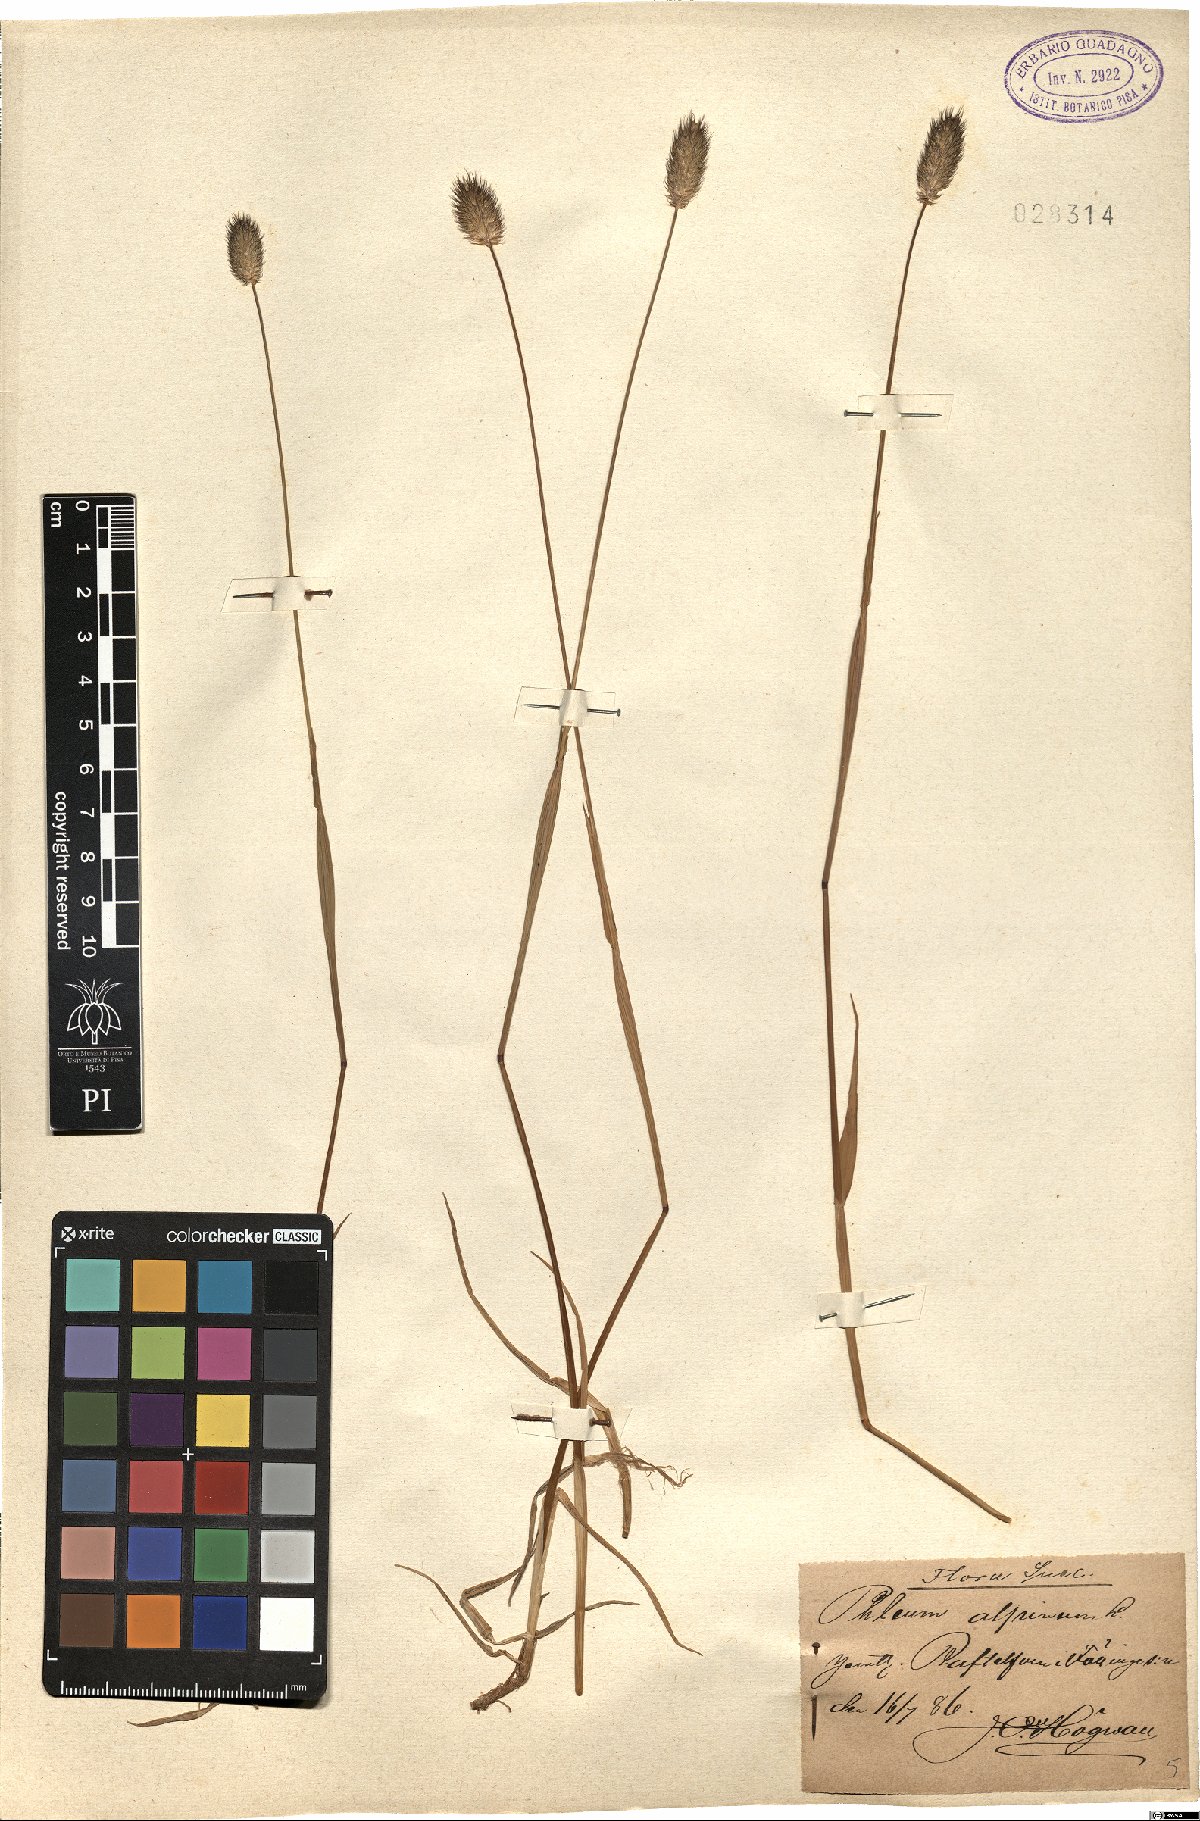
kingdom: Plantae
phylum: Tracheophyta
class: Liliopsida
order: Poales
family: Poaceae
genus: Phleum
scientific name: Phleum alpinum
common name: Alpine cat's-tail
